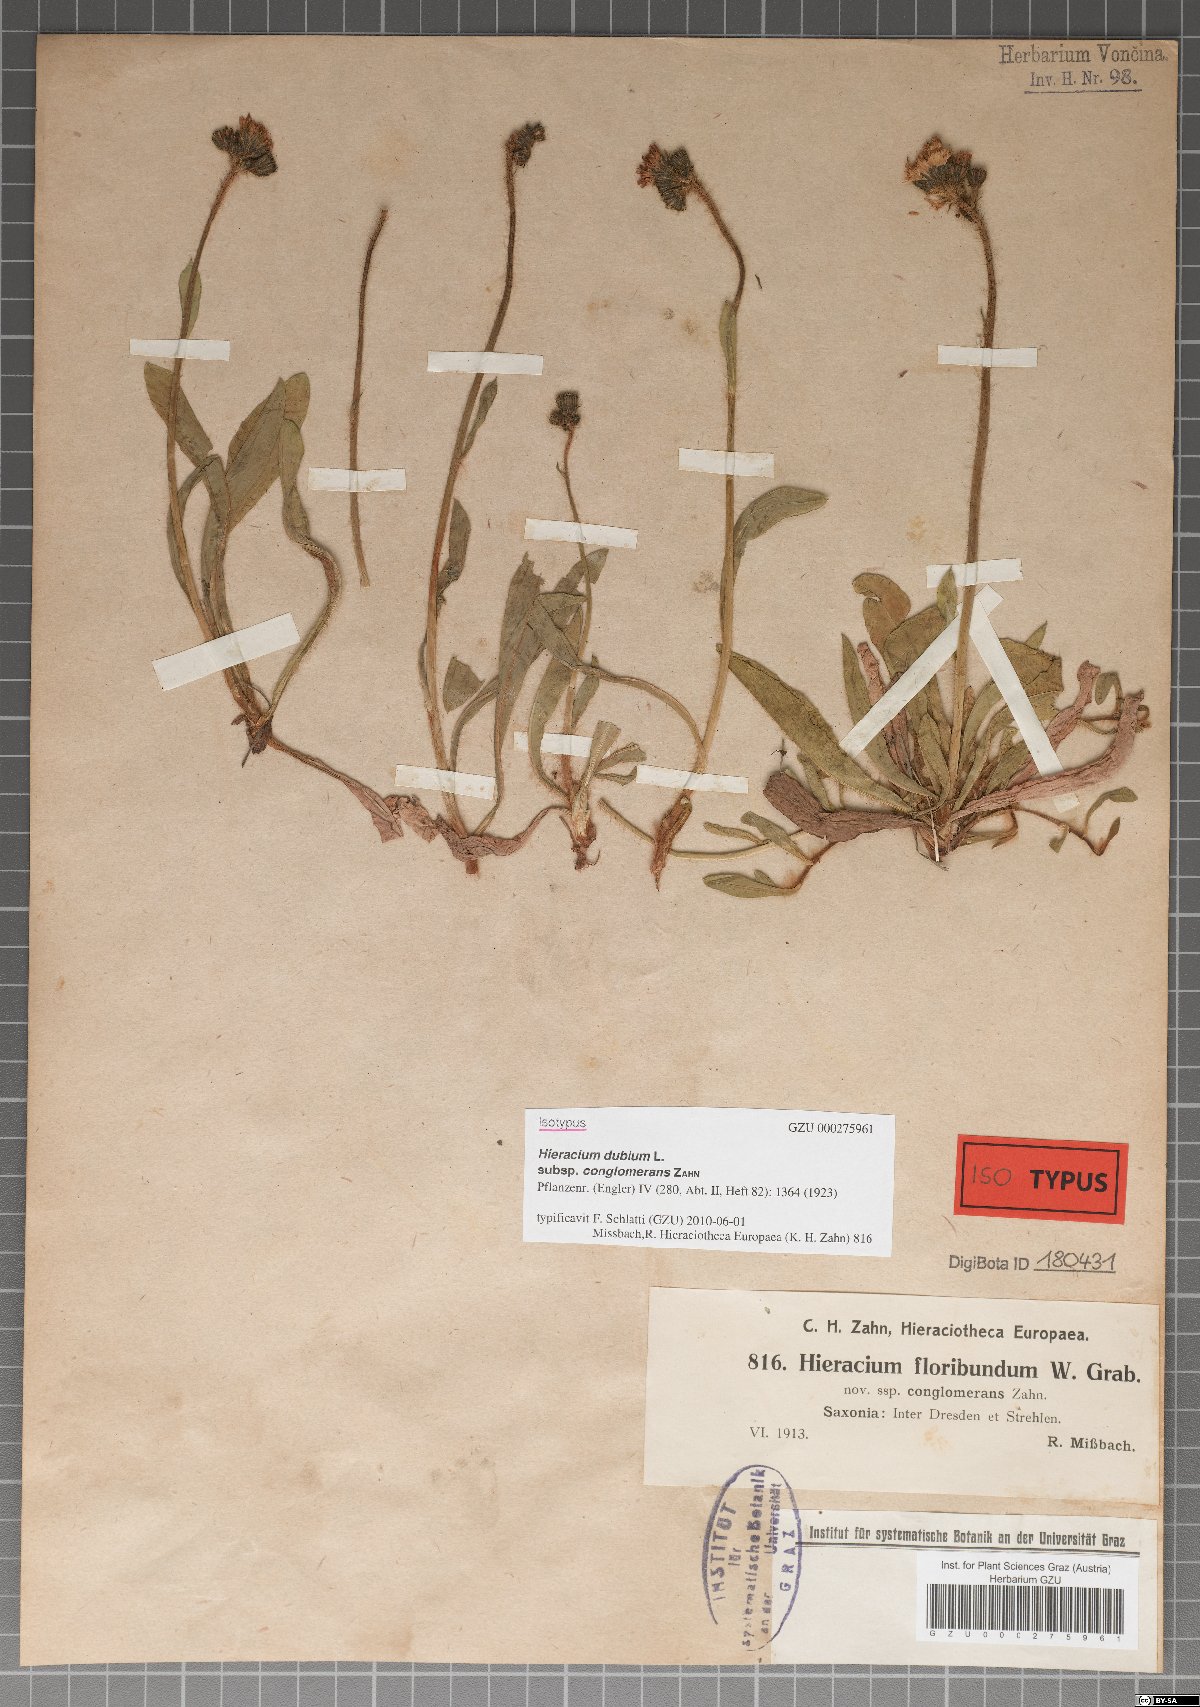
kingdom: Plantae
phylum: Tracheophyta
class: Magnoliopsida
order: Asterales
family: Asteraceae
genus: Hieracium
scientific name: Hieracium dubium
